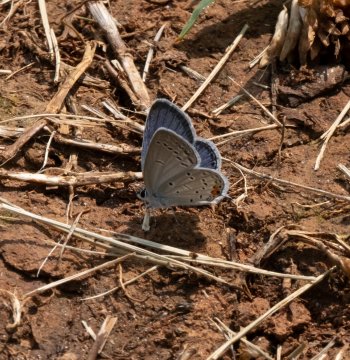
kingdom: Animalia
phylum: Arthropoda
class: Insecta
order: Lepidoptera
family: Lycaenidae
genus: Elkalyce
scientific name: Elkalyce comyntas
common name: Eastern Tailed-Blue
